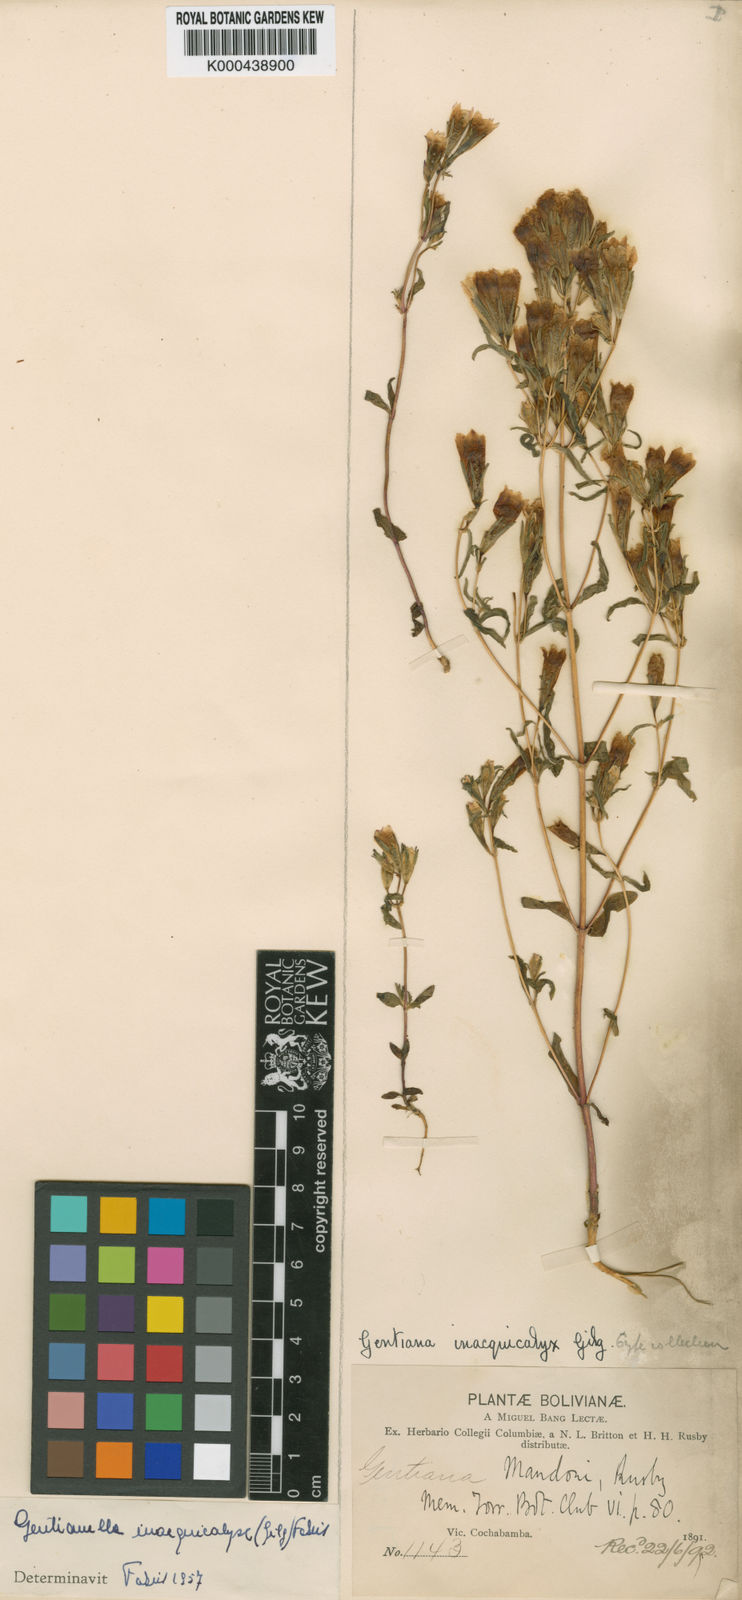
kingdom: Plantae
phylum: Tracheophyta
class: Magnoliopsida
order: Gentianales
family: Gentianaceae
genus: Gentianella
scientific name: Gentianella inaequicalyx
